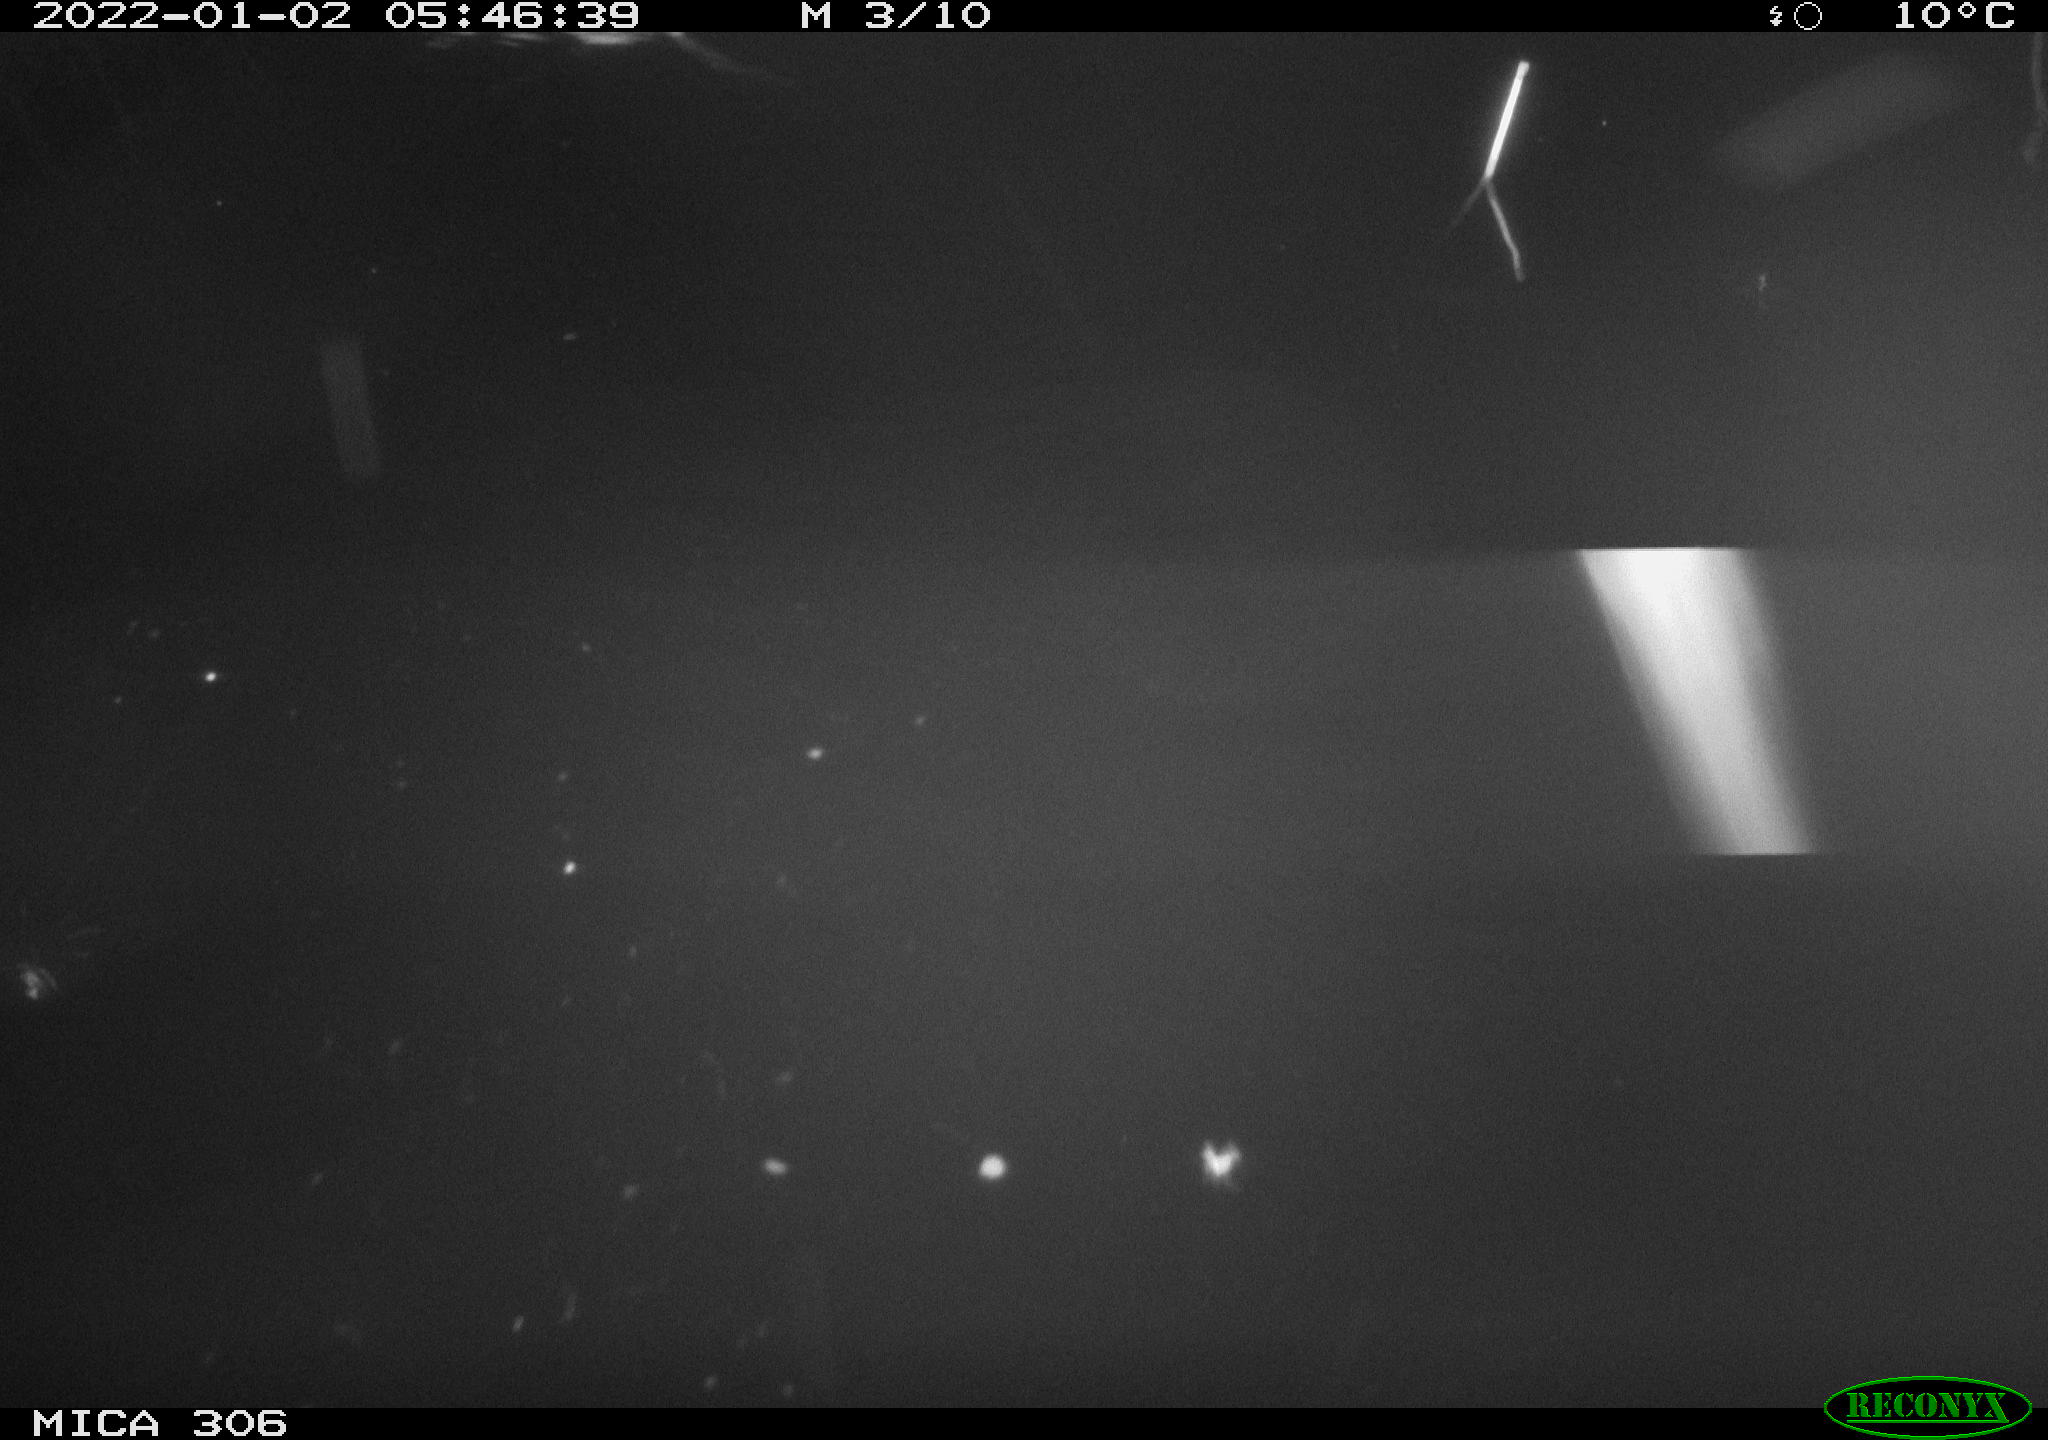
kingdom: Animalia
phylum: Chordata
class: Mammalia
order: Rodentia
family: Muridae
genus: Rattus
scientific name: Rattus norvegicus
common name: Brown rat
